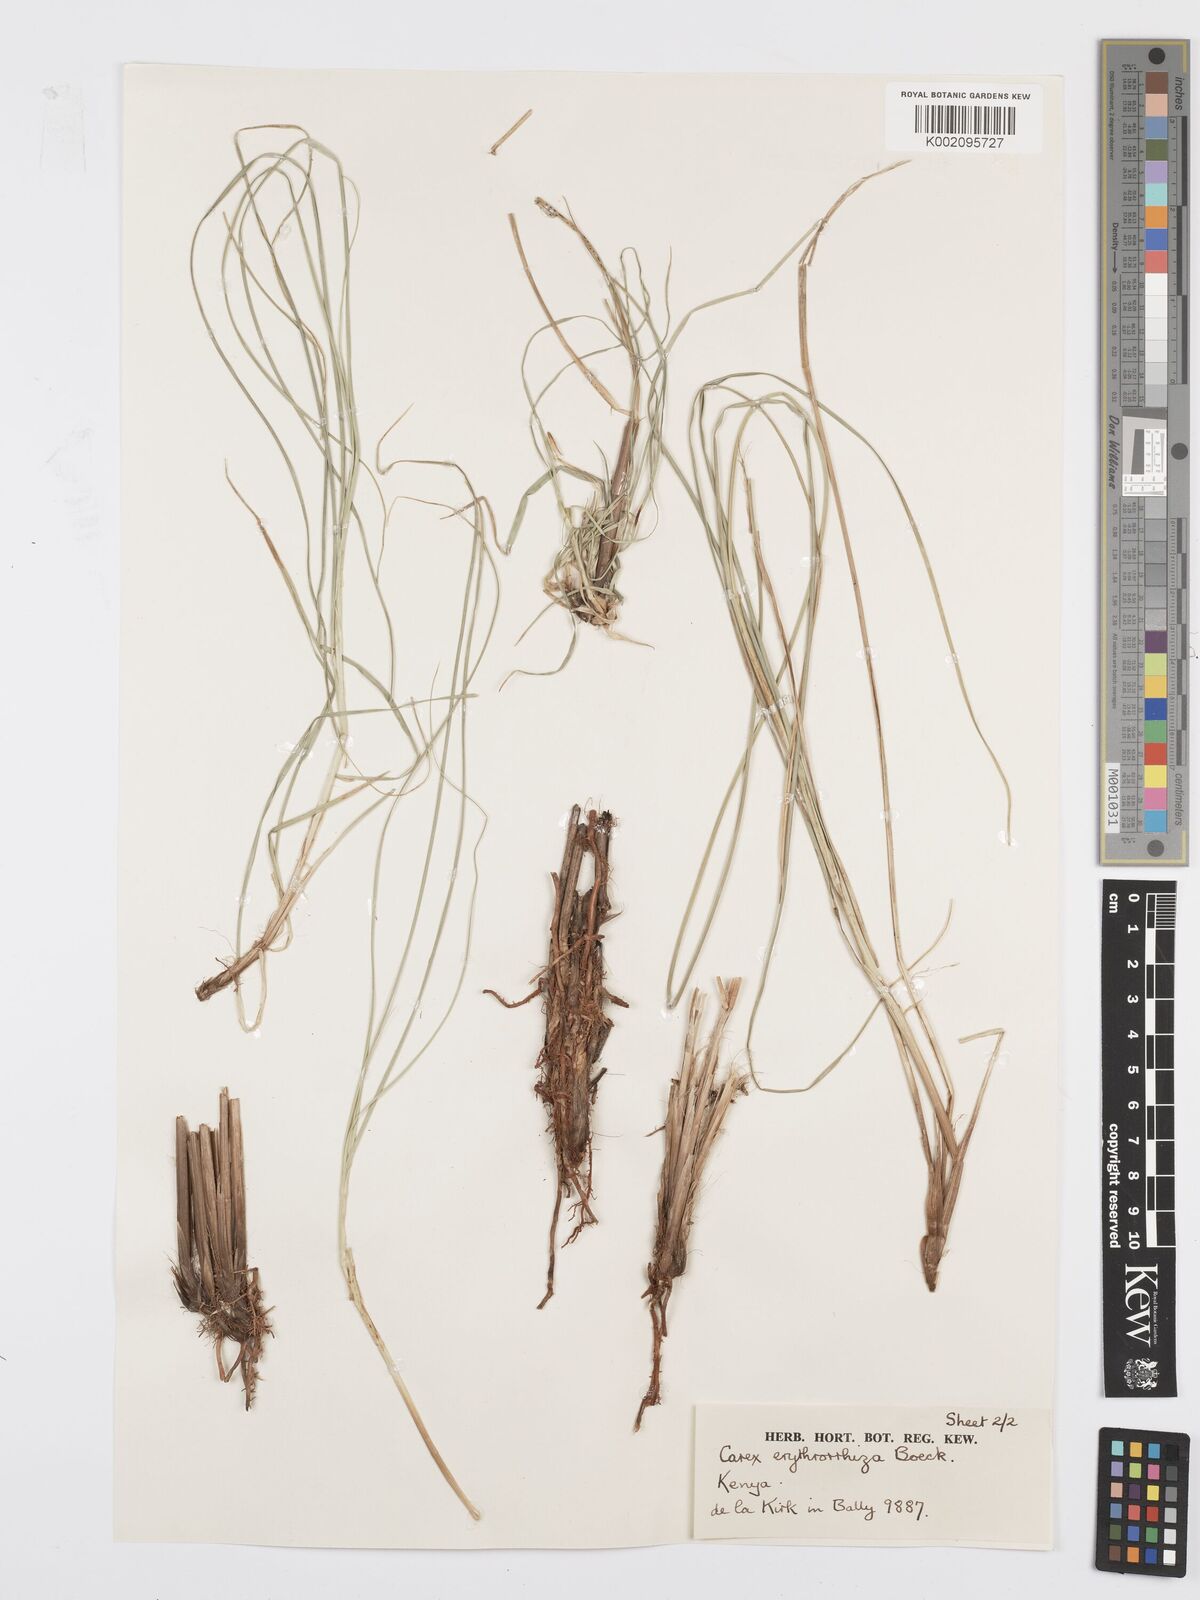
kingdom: Plantae
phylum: Tracheophyta
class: Liliopsida
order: Poales
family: Cyperaceae
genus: Carex
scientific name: Carex erythrorrhiza
